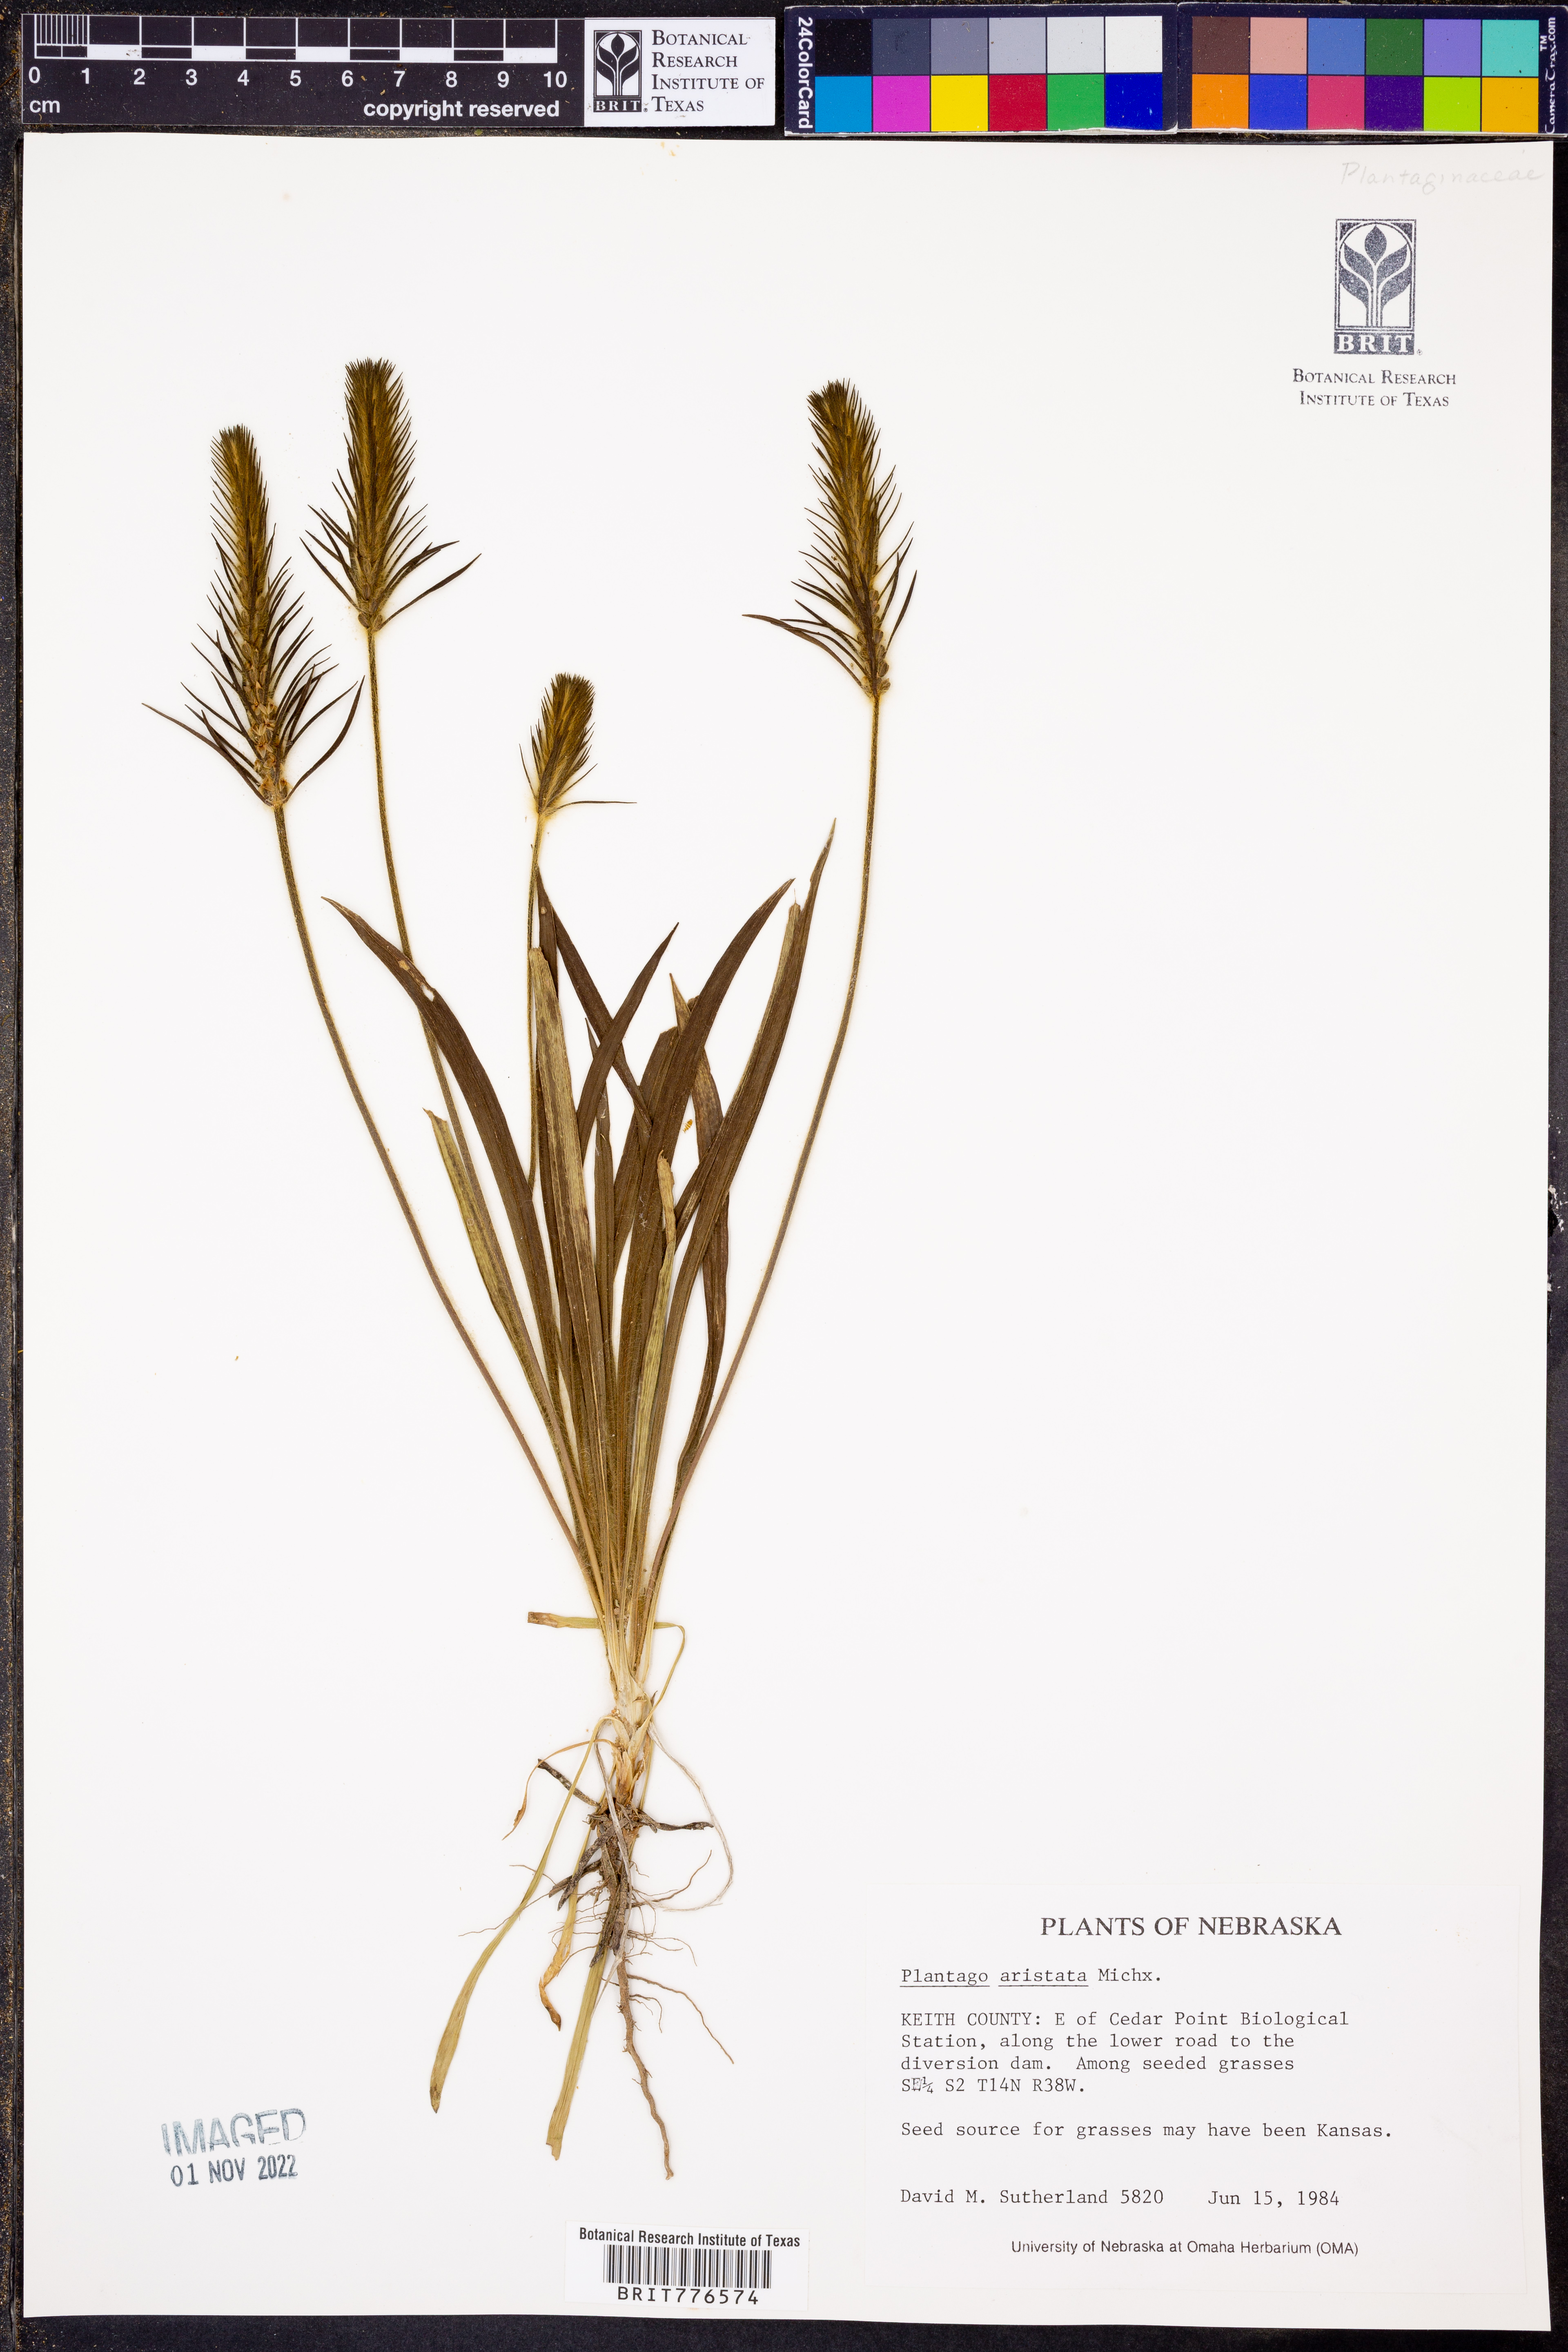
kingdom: Plantae
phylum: Tracheophyta
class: Magnoliopsida
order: Lamiales
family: Plantaginaceae
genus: Plantago
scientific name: Plantago aristata
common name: Bracted plantain
